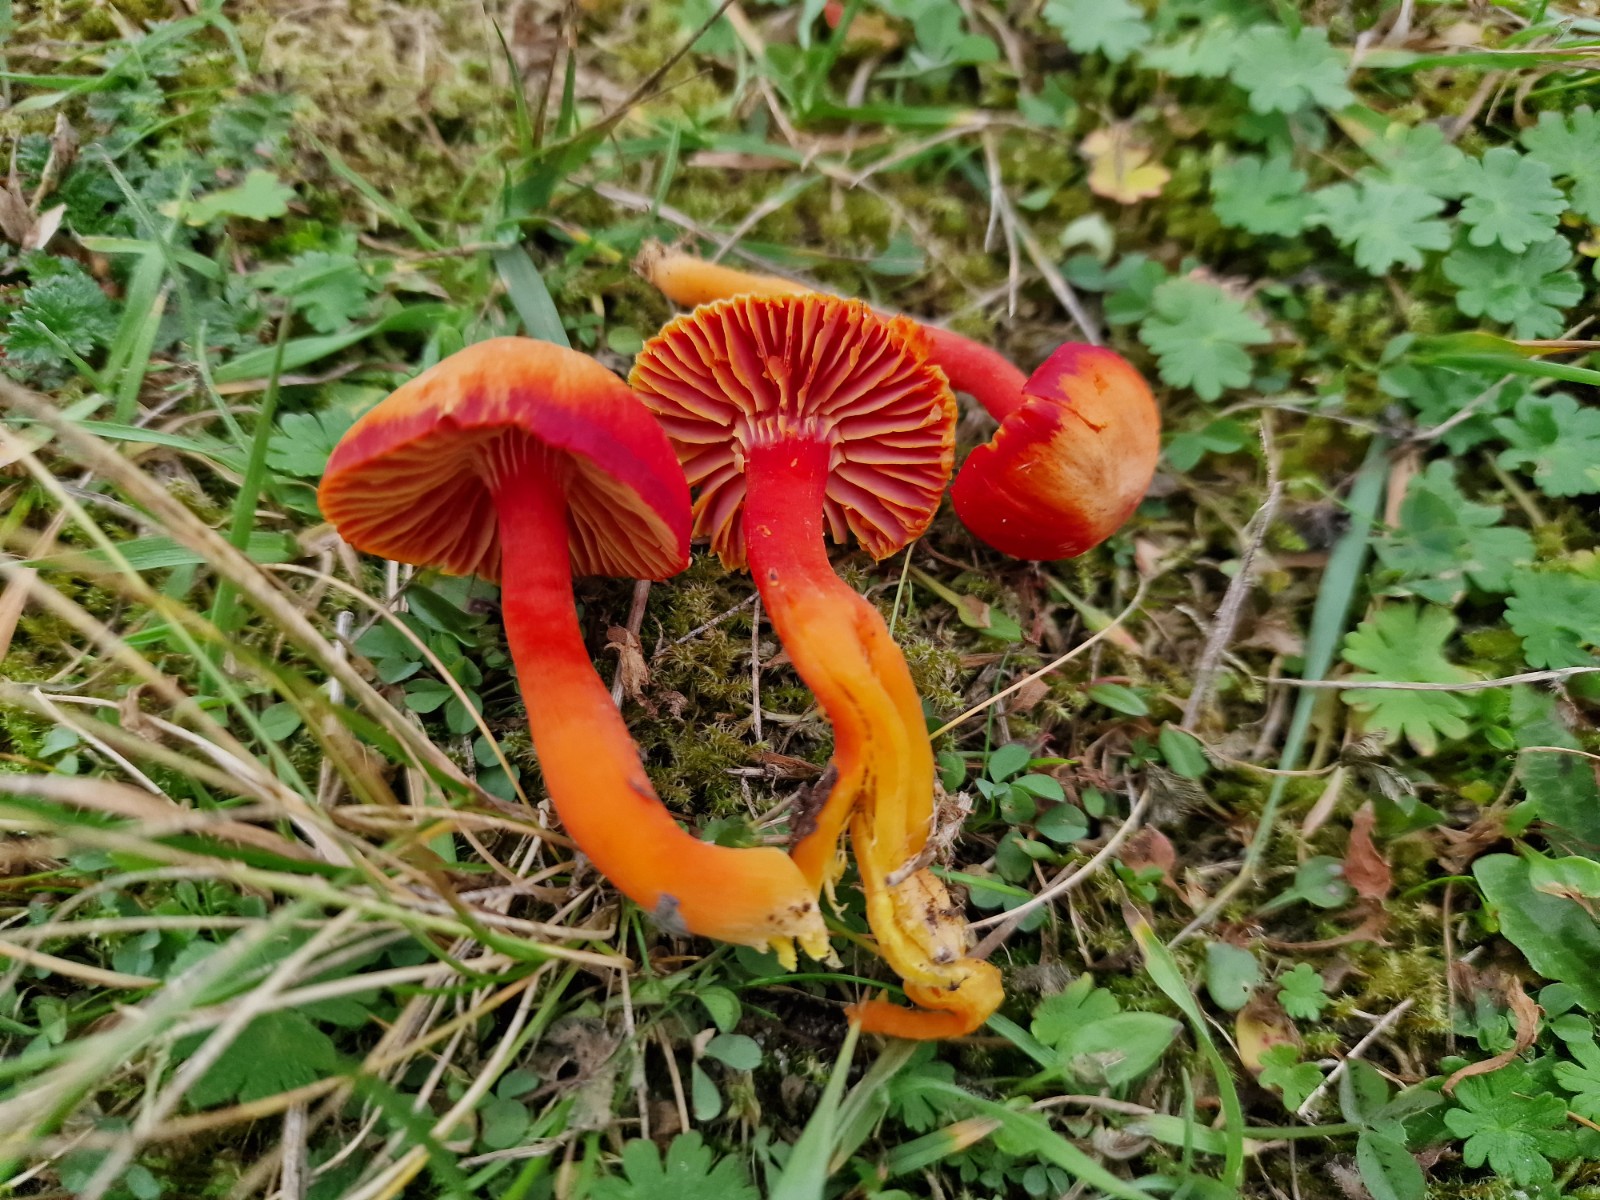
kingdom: Fungi
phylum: Basidiomycota
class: Agaricomycetes
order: Agaricales
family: Hygrophoraceae
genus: Hygrocybe
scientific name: Hygrocybe coccinea
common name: cinnober-vokshat
